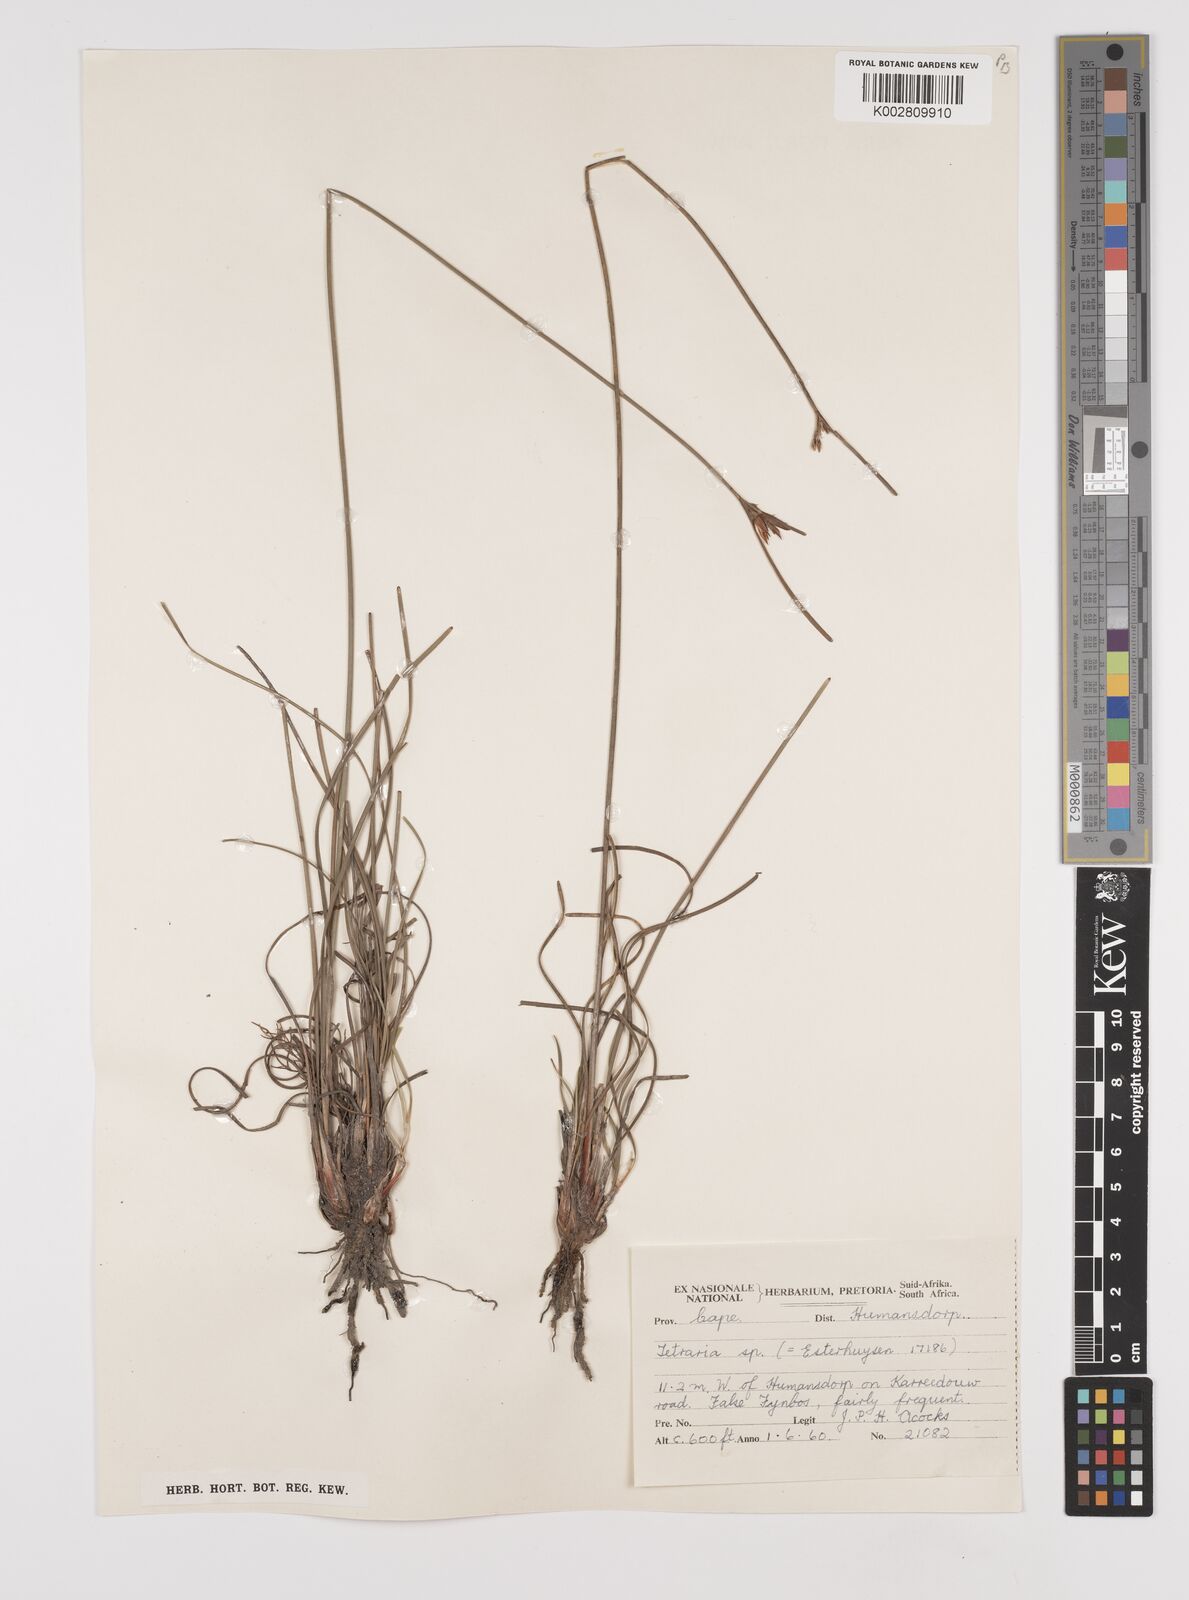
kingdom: Plantae
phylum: Tracheophyta
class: Liliopsida
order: Poales
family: Cyperaceae
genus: Schoenus
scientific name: Schoenus megacarpus
